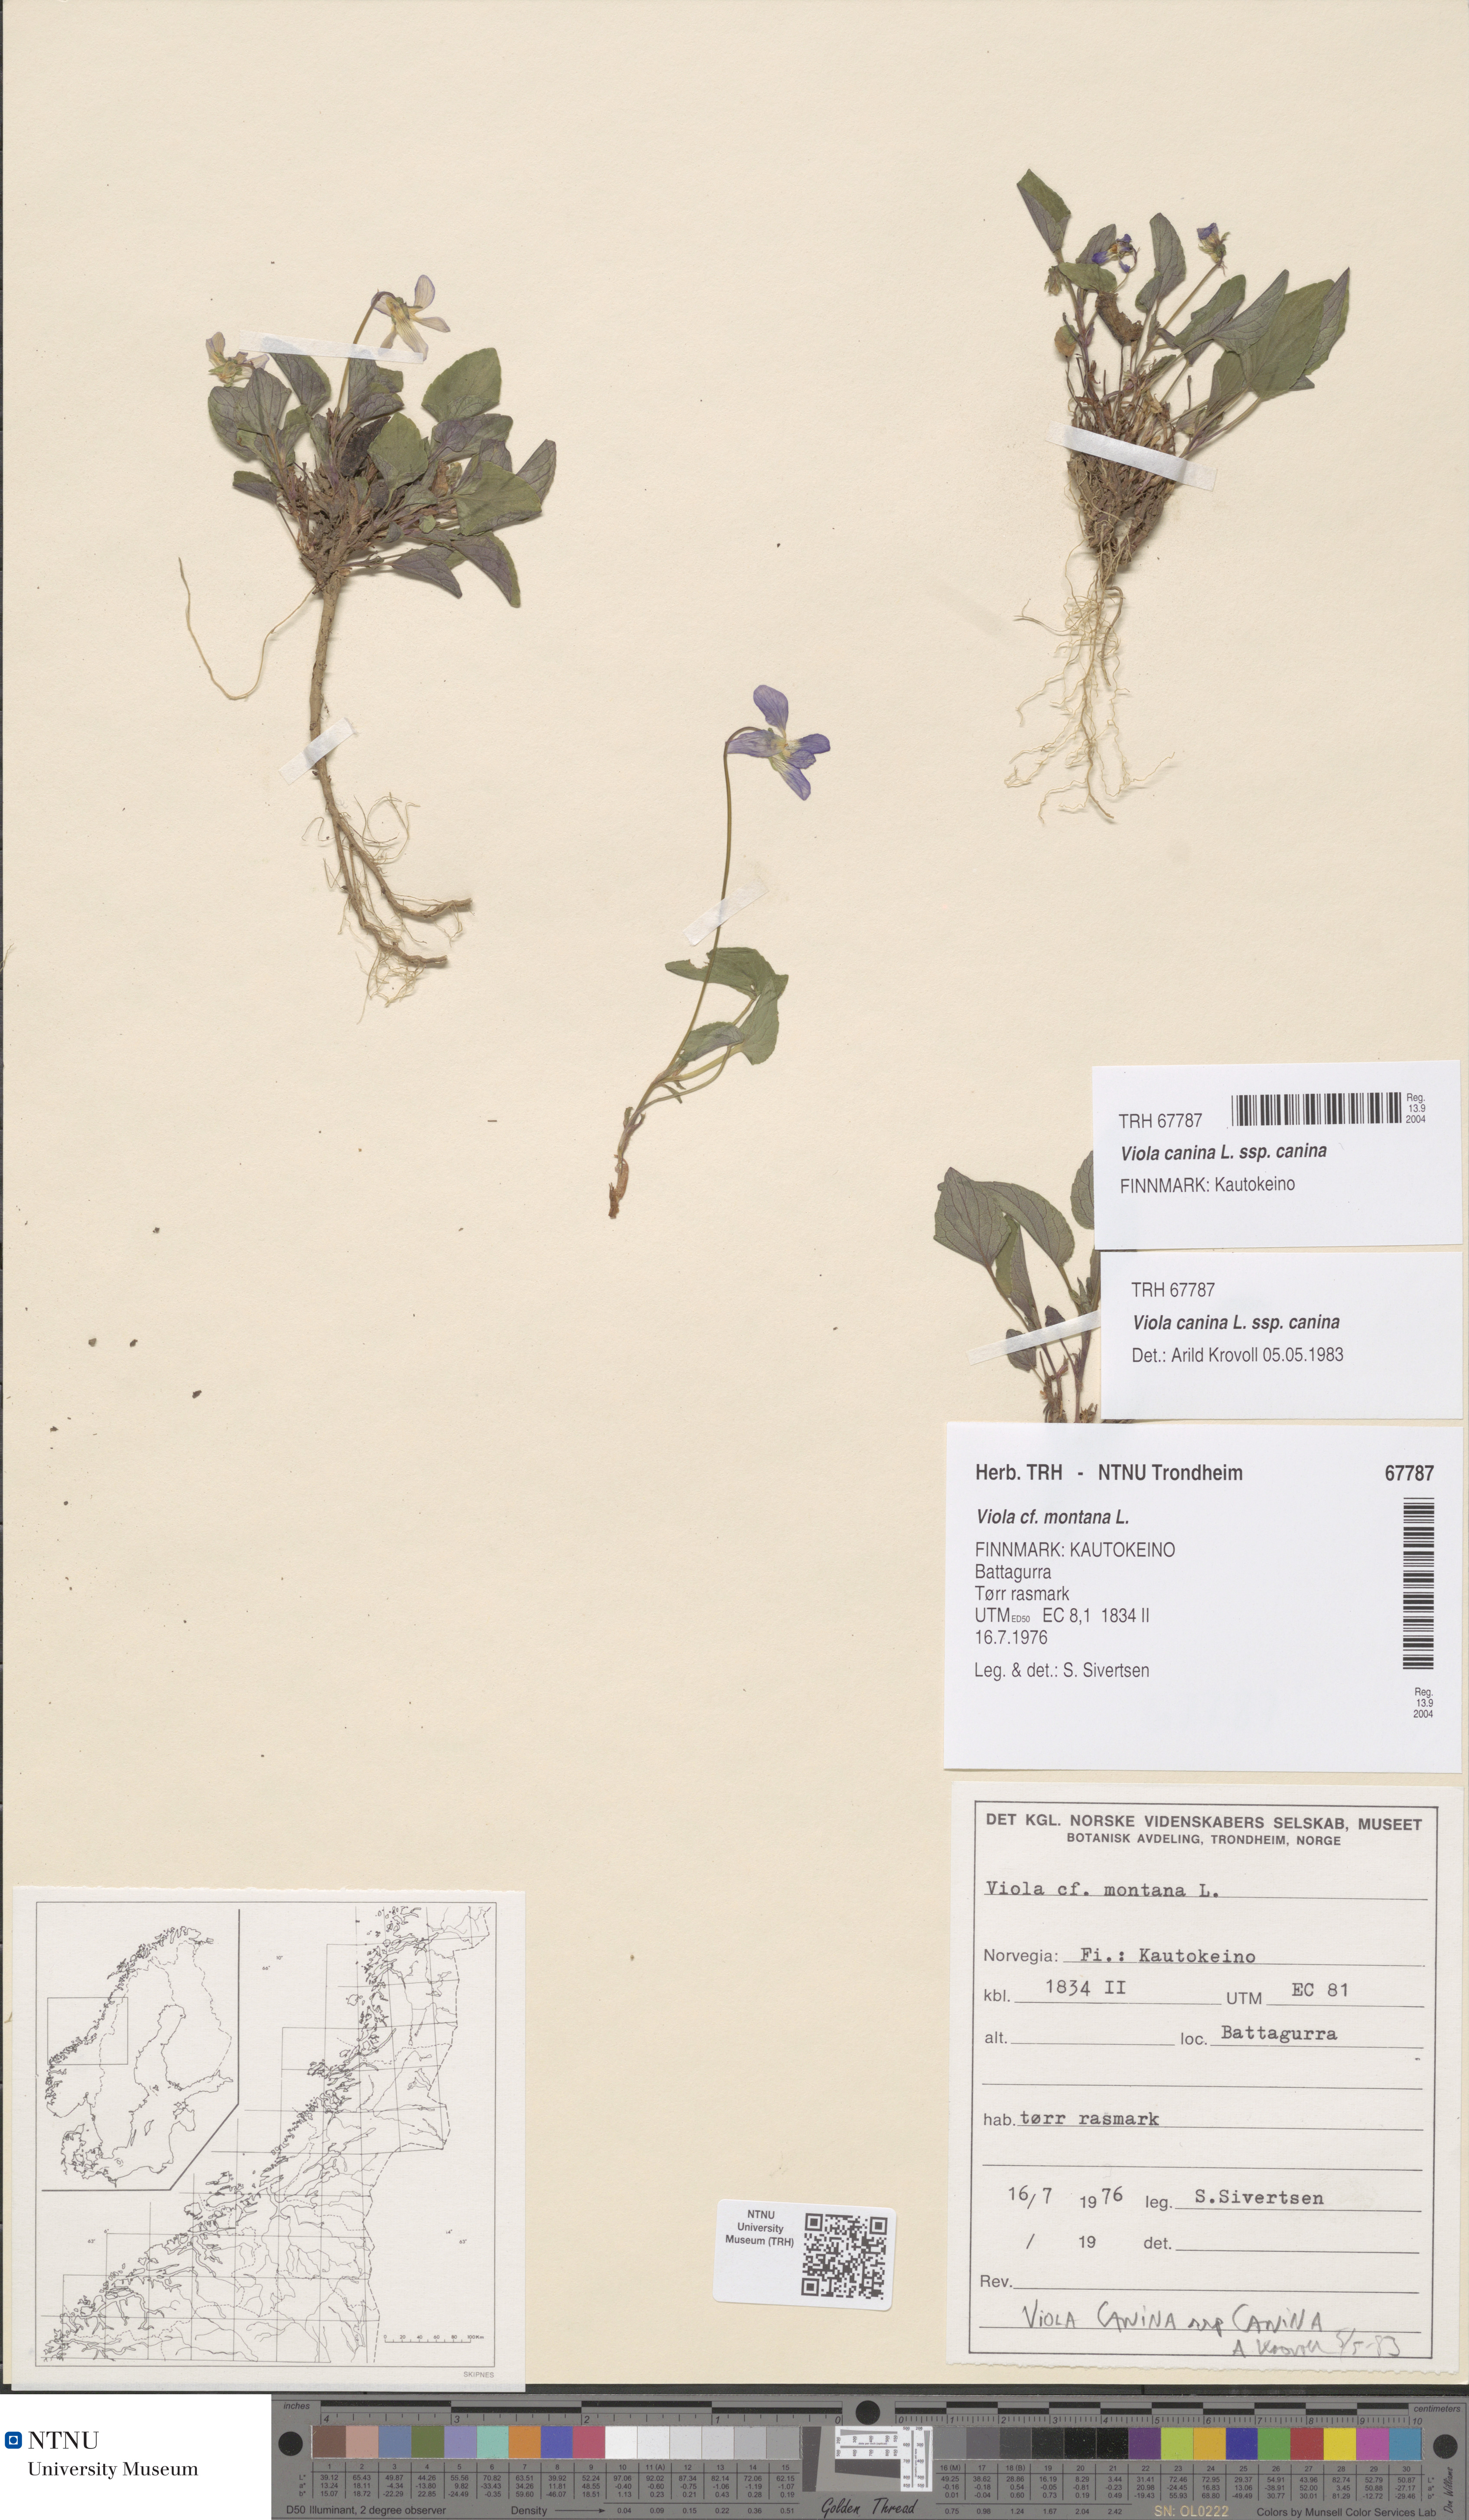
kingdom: Plantae
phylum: Tracheophyta
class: Magnoliopsida
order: Malpighiales
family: Violaceae
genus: Viola
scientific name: Viola canina
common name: Heath dog-violet
